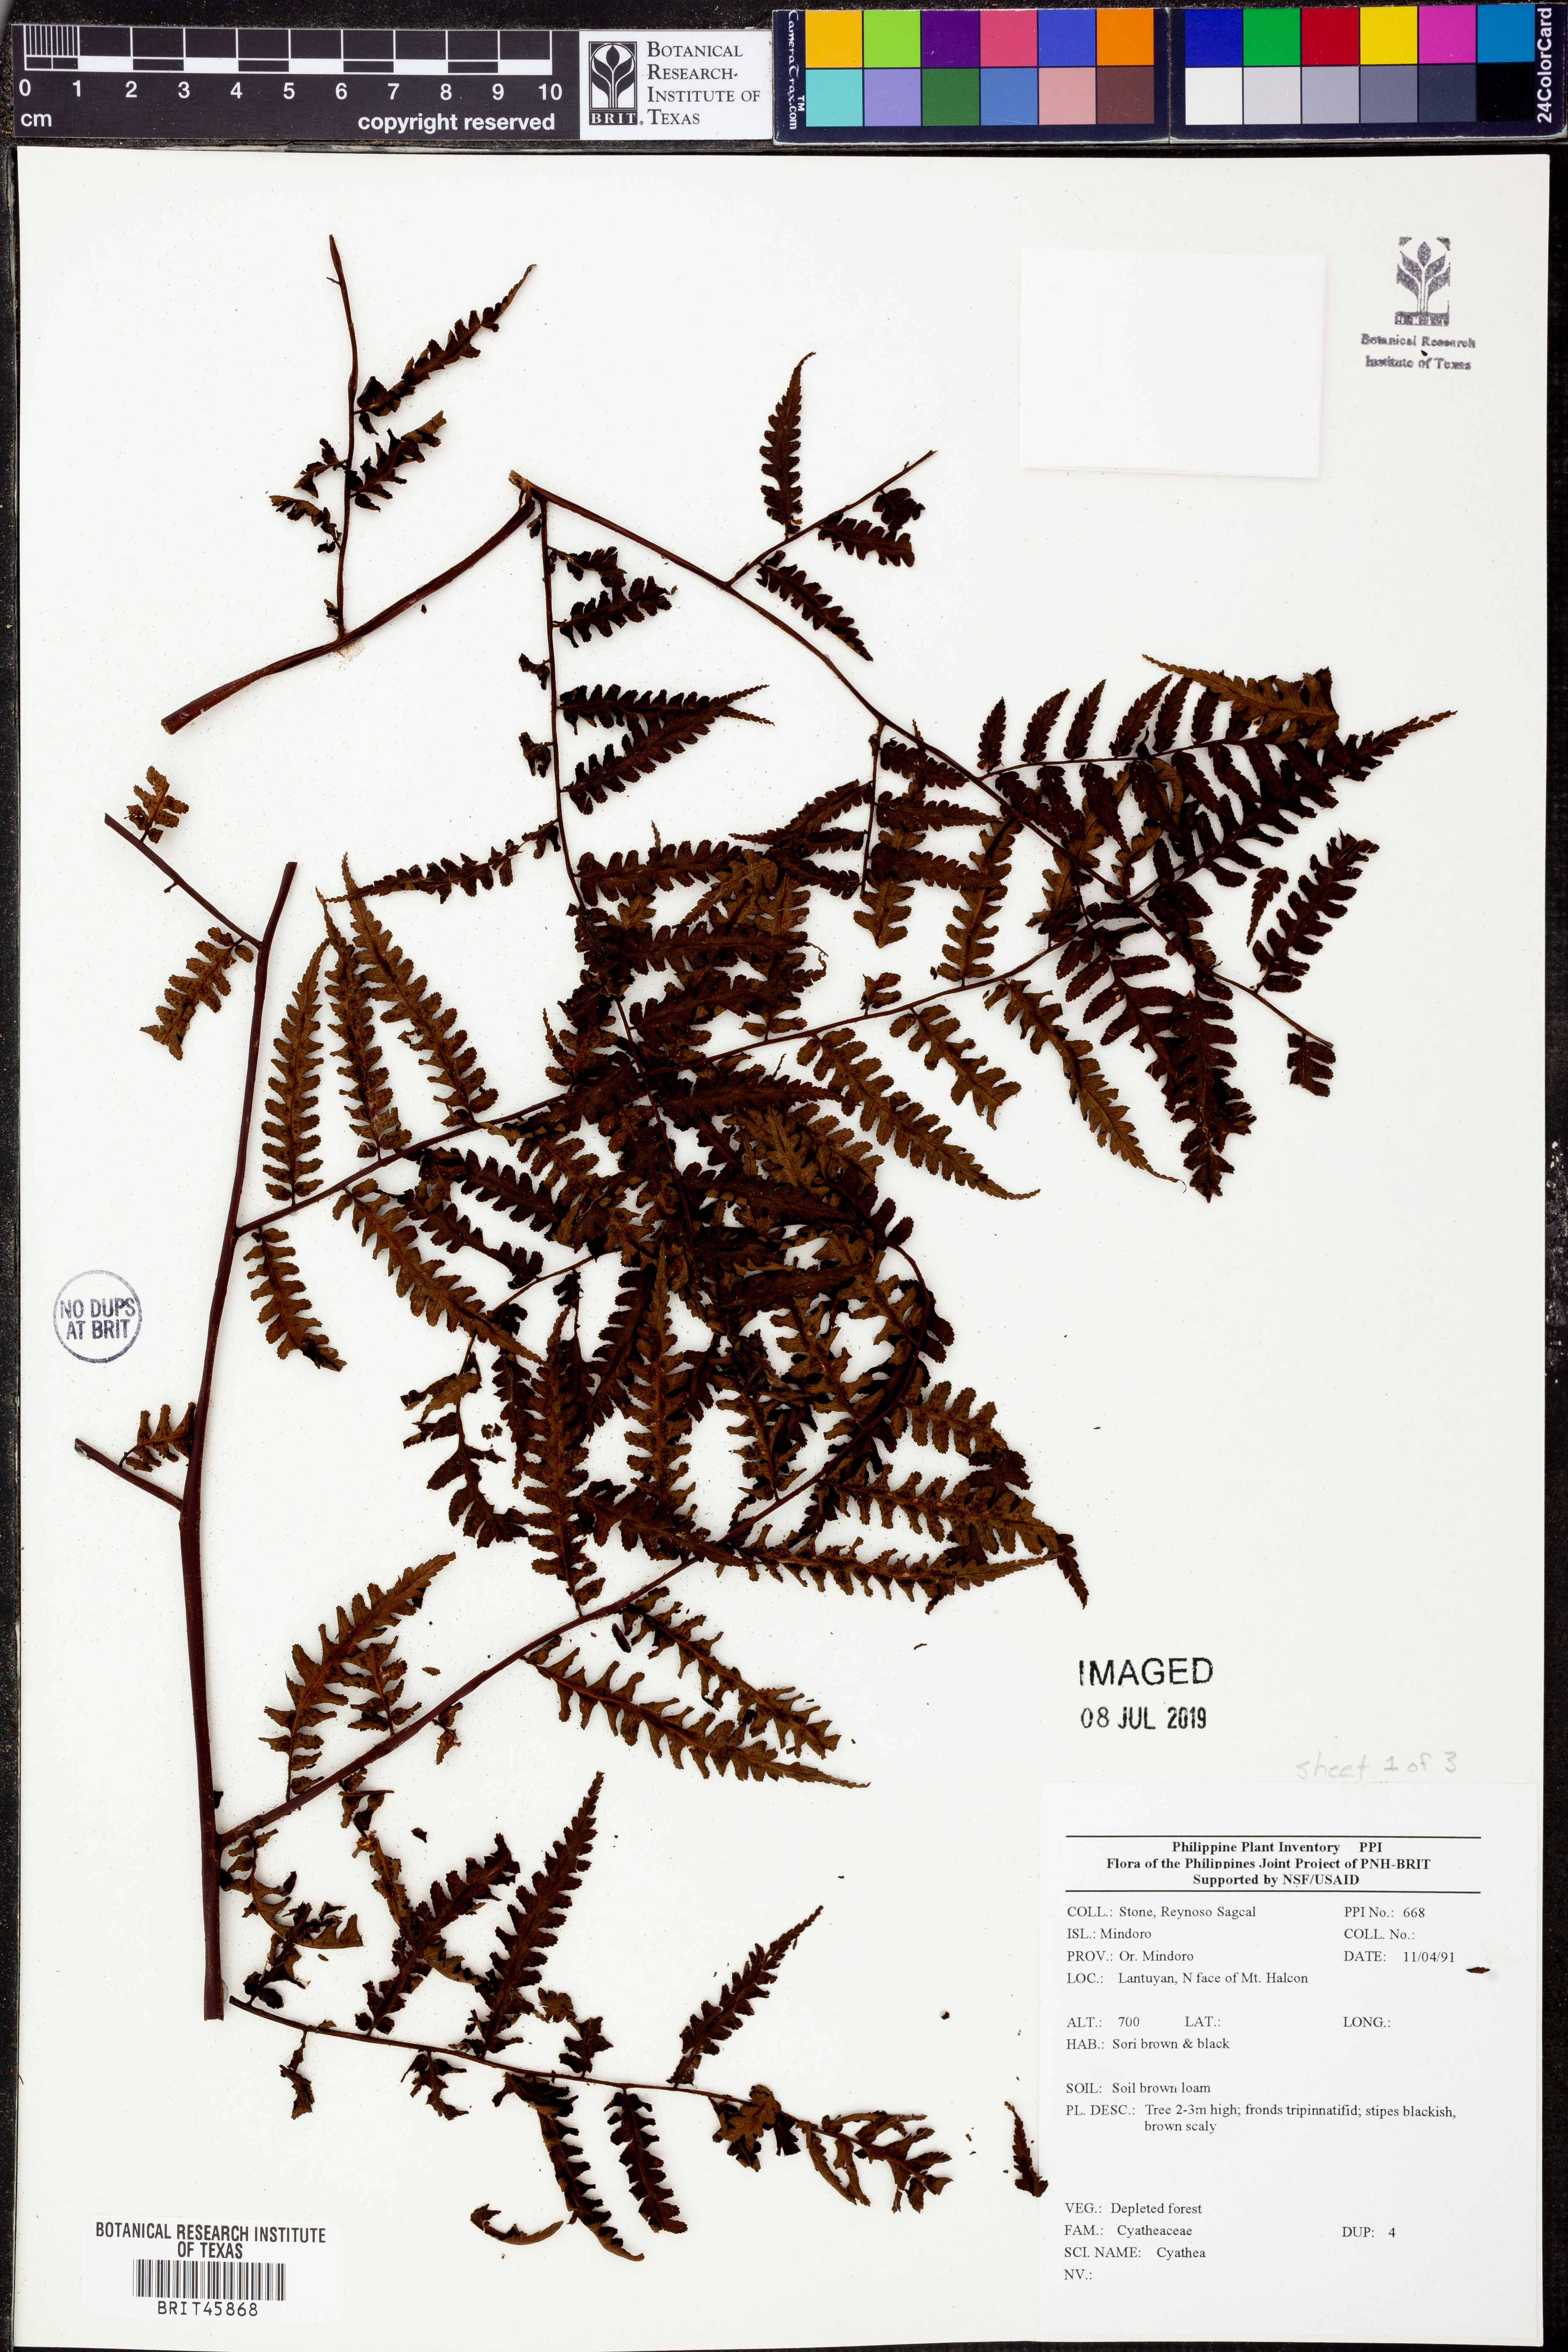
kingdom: Plantae
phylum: Tracheophyta
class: Polypodiopsida
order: Cyatheales
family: Cyatheaceae
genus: Cyathea
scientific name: Cyathea
